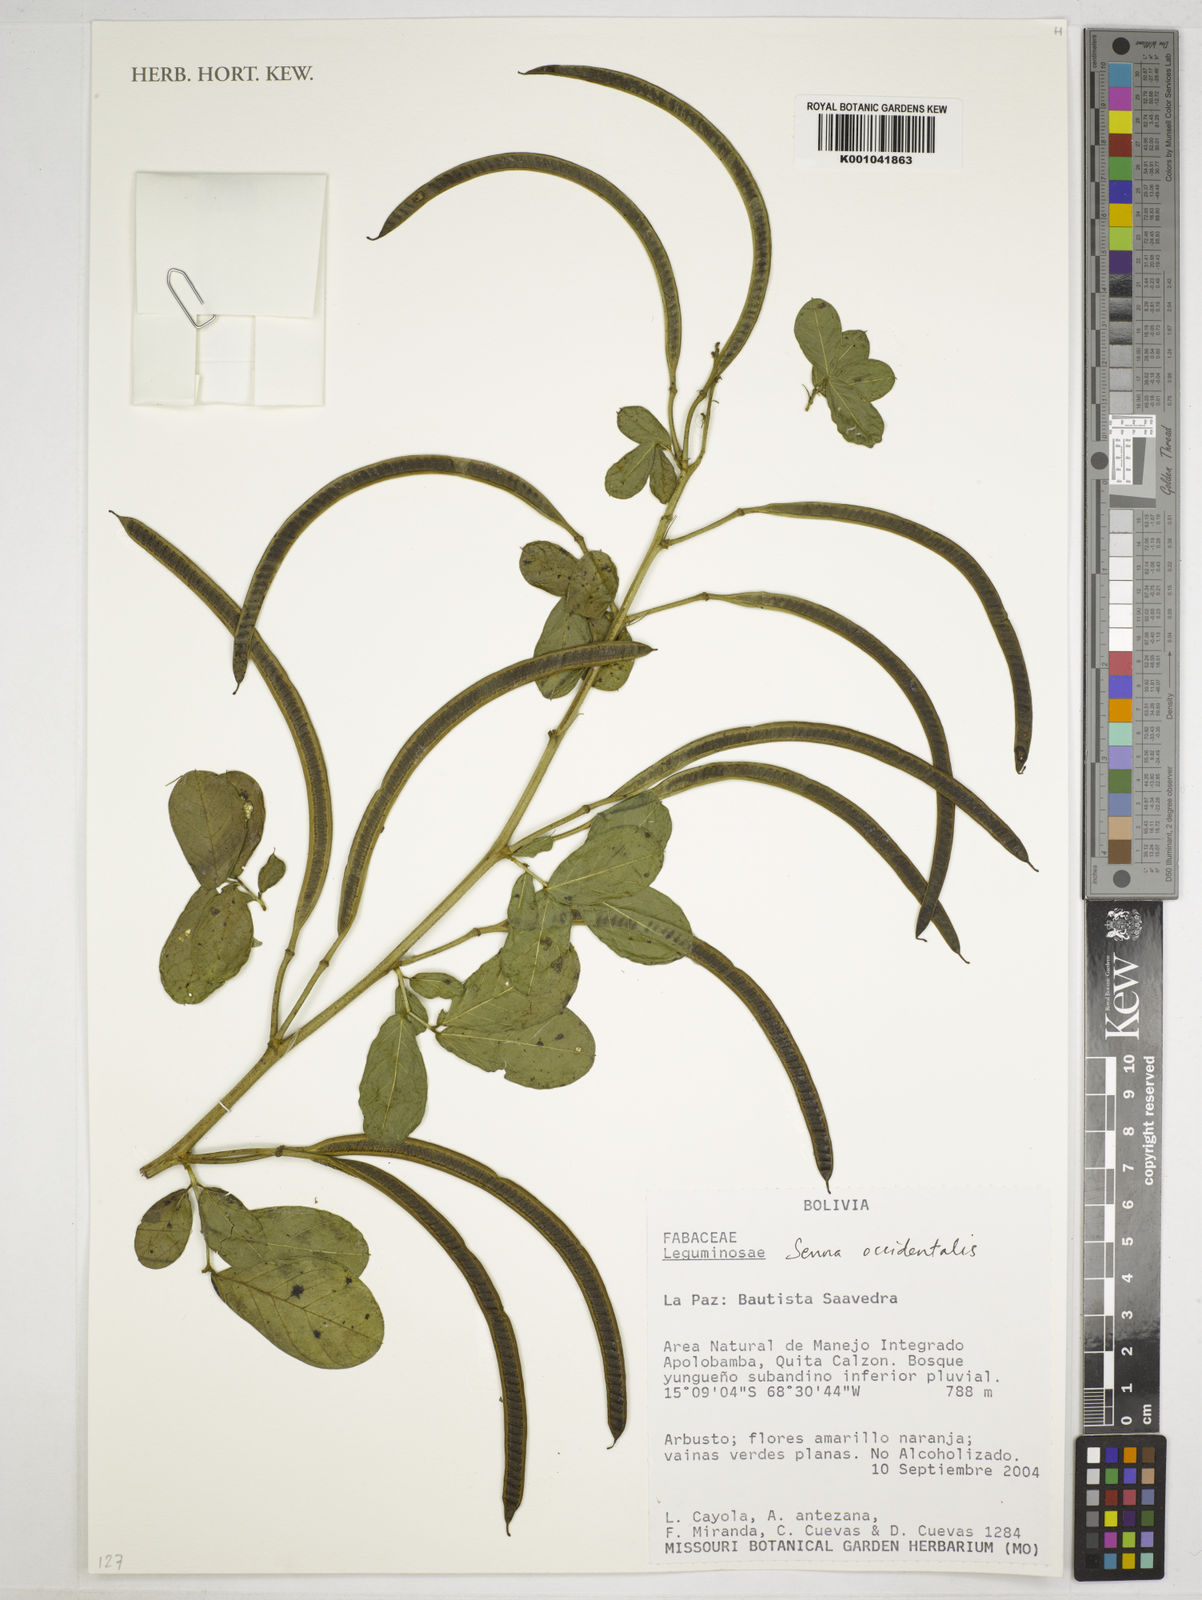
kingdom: Plantae
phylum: Tracheophyta
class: Magnoliopsida
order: Fabales
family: Fabaceae
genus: Senna
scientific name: Senna occidentalis
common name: Septicweed
